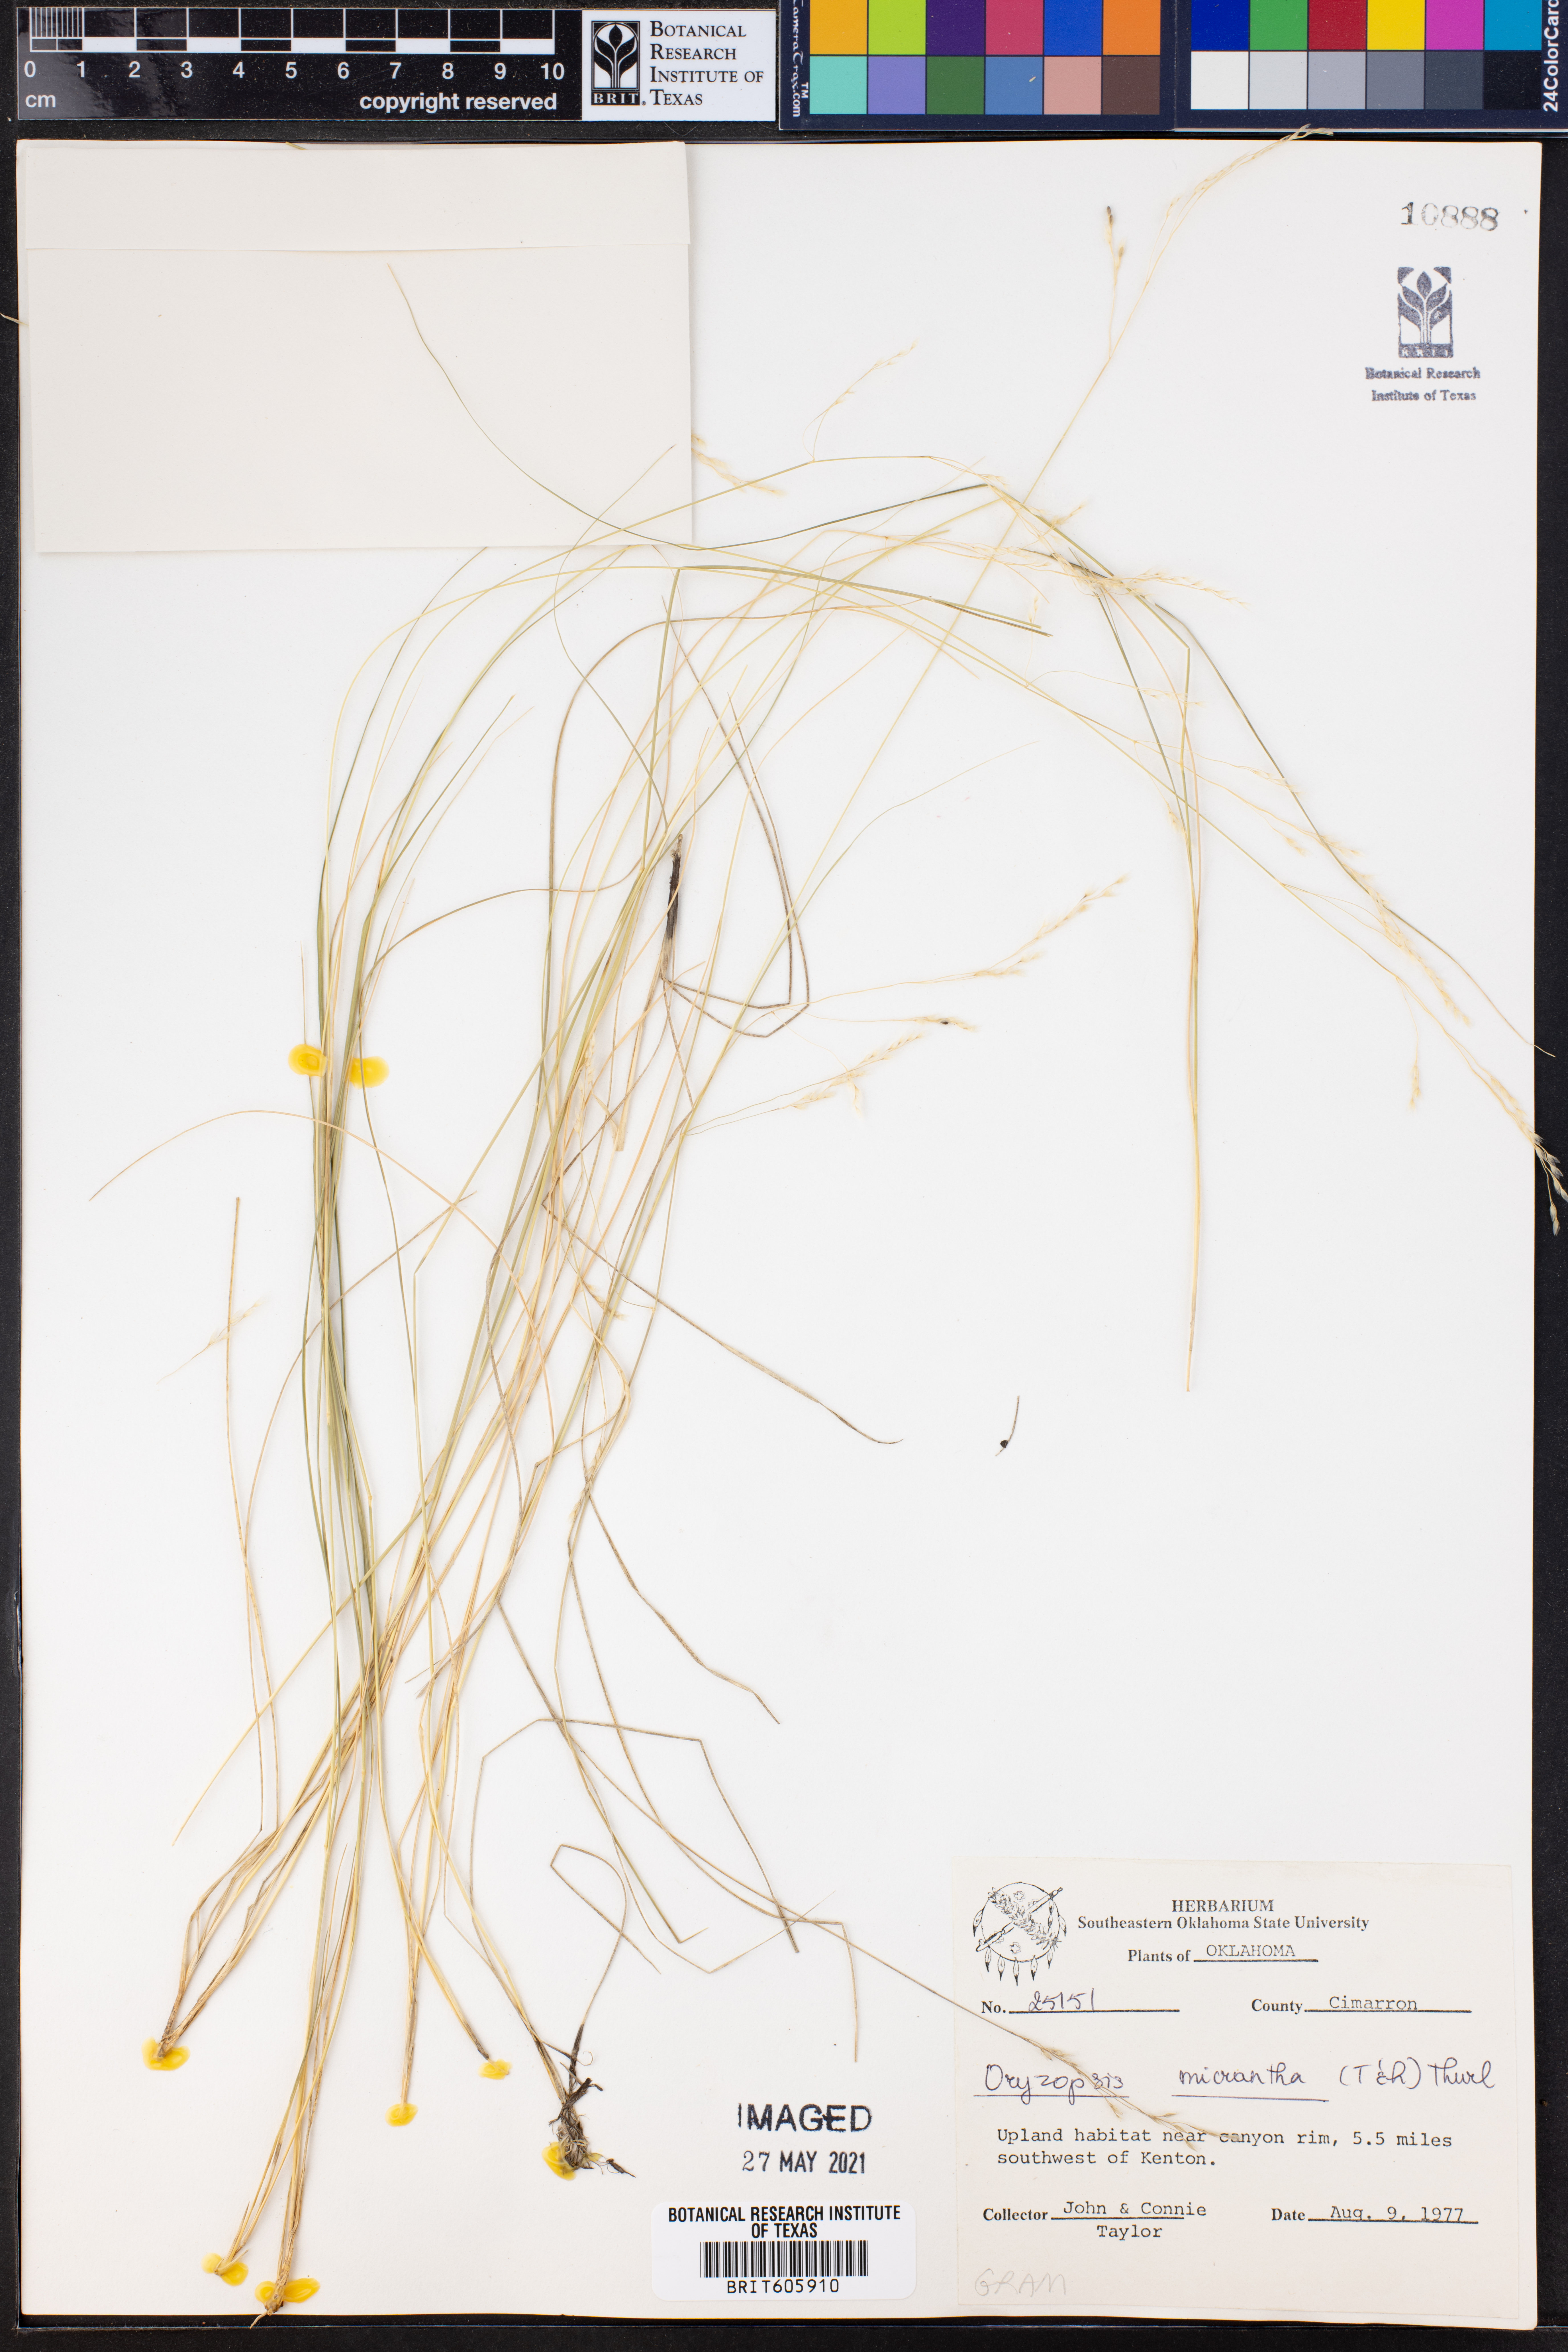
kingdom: Plantae
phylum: Tracheophyta
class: Liliopsida
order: Poales
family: Poaceae
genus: Piptatheropsis
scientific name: Piptatheropsis micrantha
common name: Little-seed mountain ricegrass
